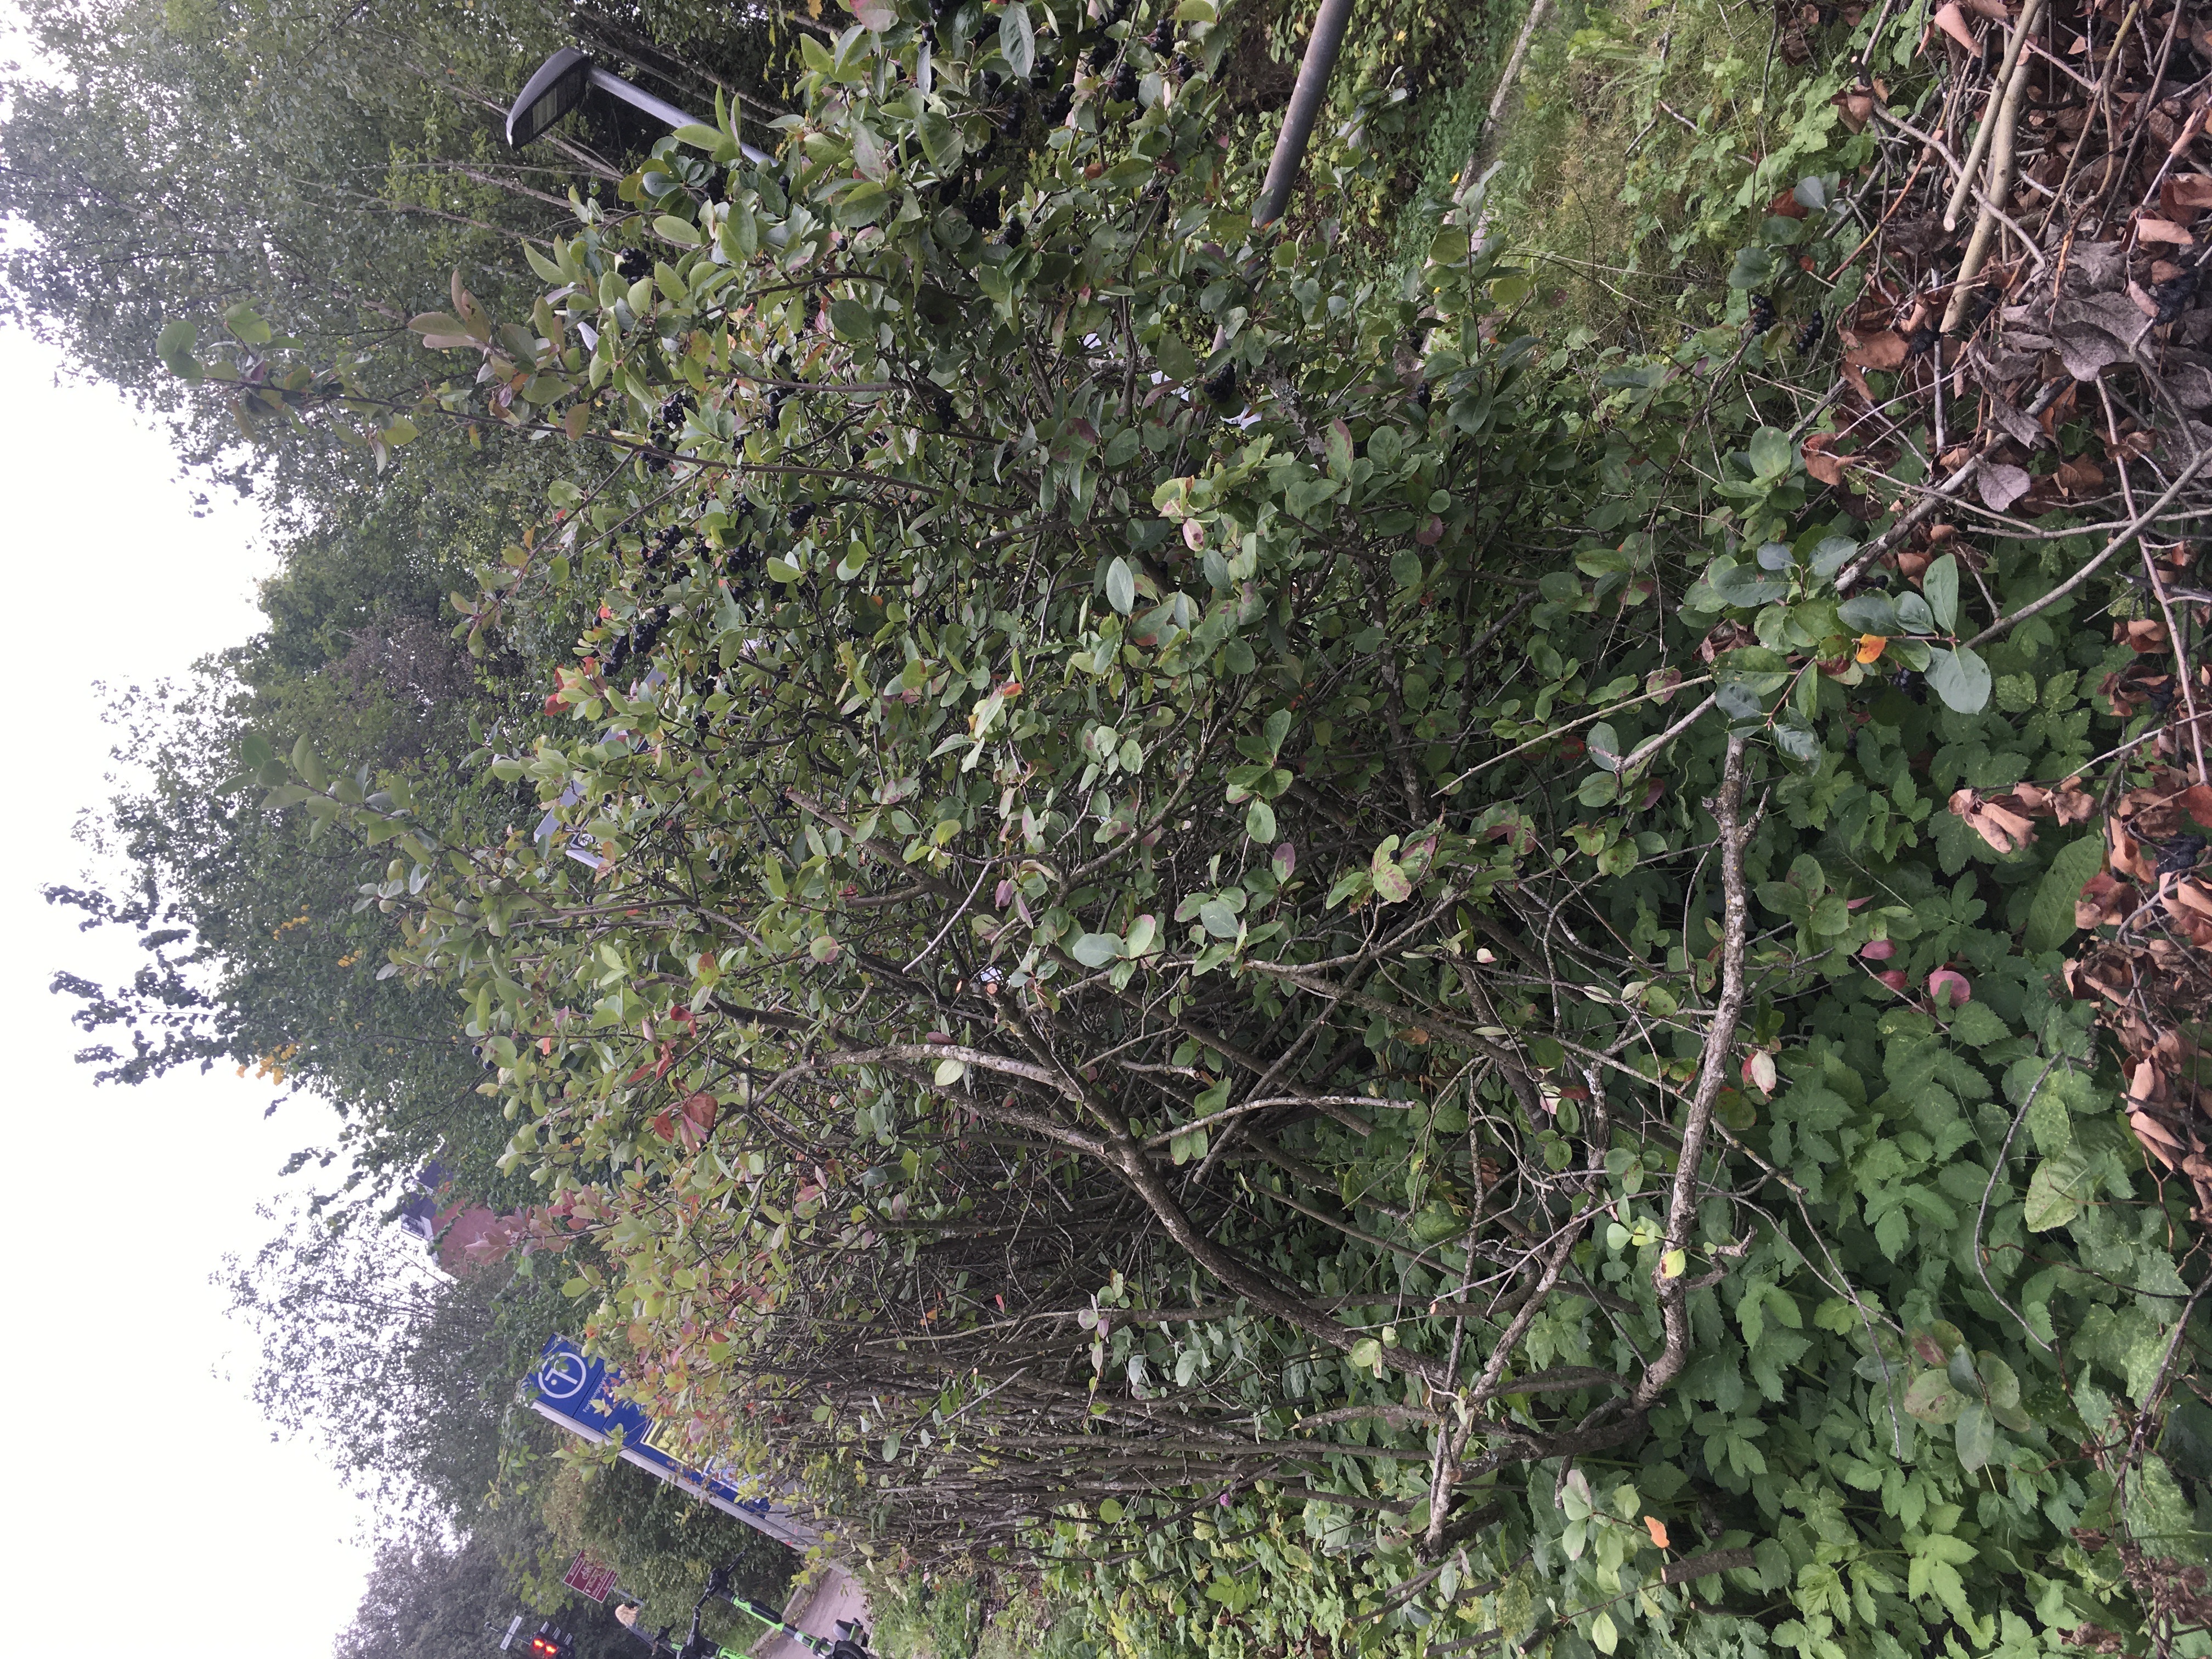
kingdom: Plantae
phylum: Tracheophyta
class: Magnoliopsida
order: Rosales
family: Rosaceae
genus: Aronia
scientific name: Aronia melanocarpa
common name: svartsurbær
